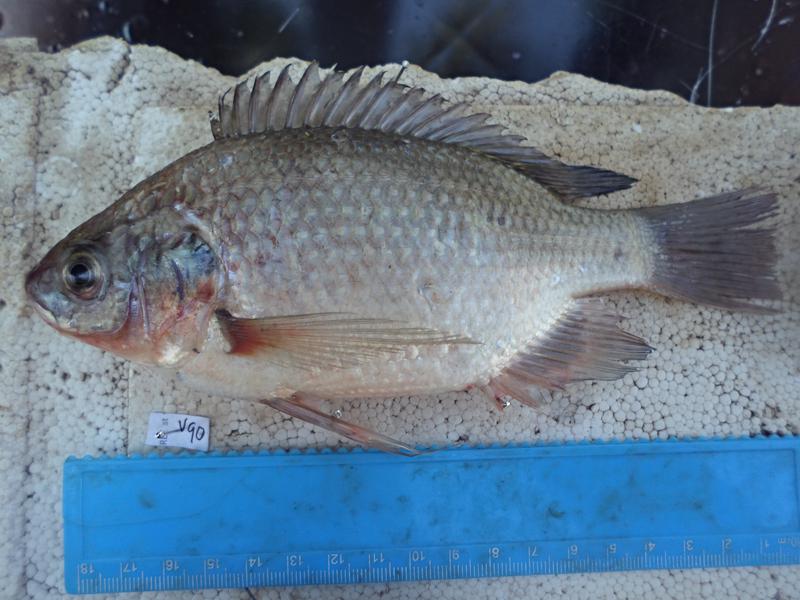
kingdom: Animalia
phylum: Chordata
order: Perciformes
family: Cichlidae
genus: Oreochromis
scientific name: Oreochromis esculentus
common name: Carp
